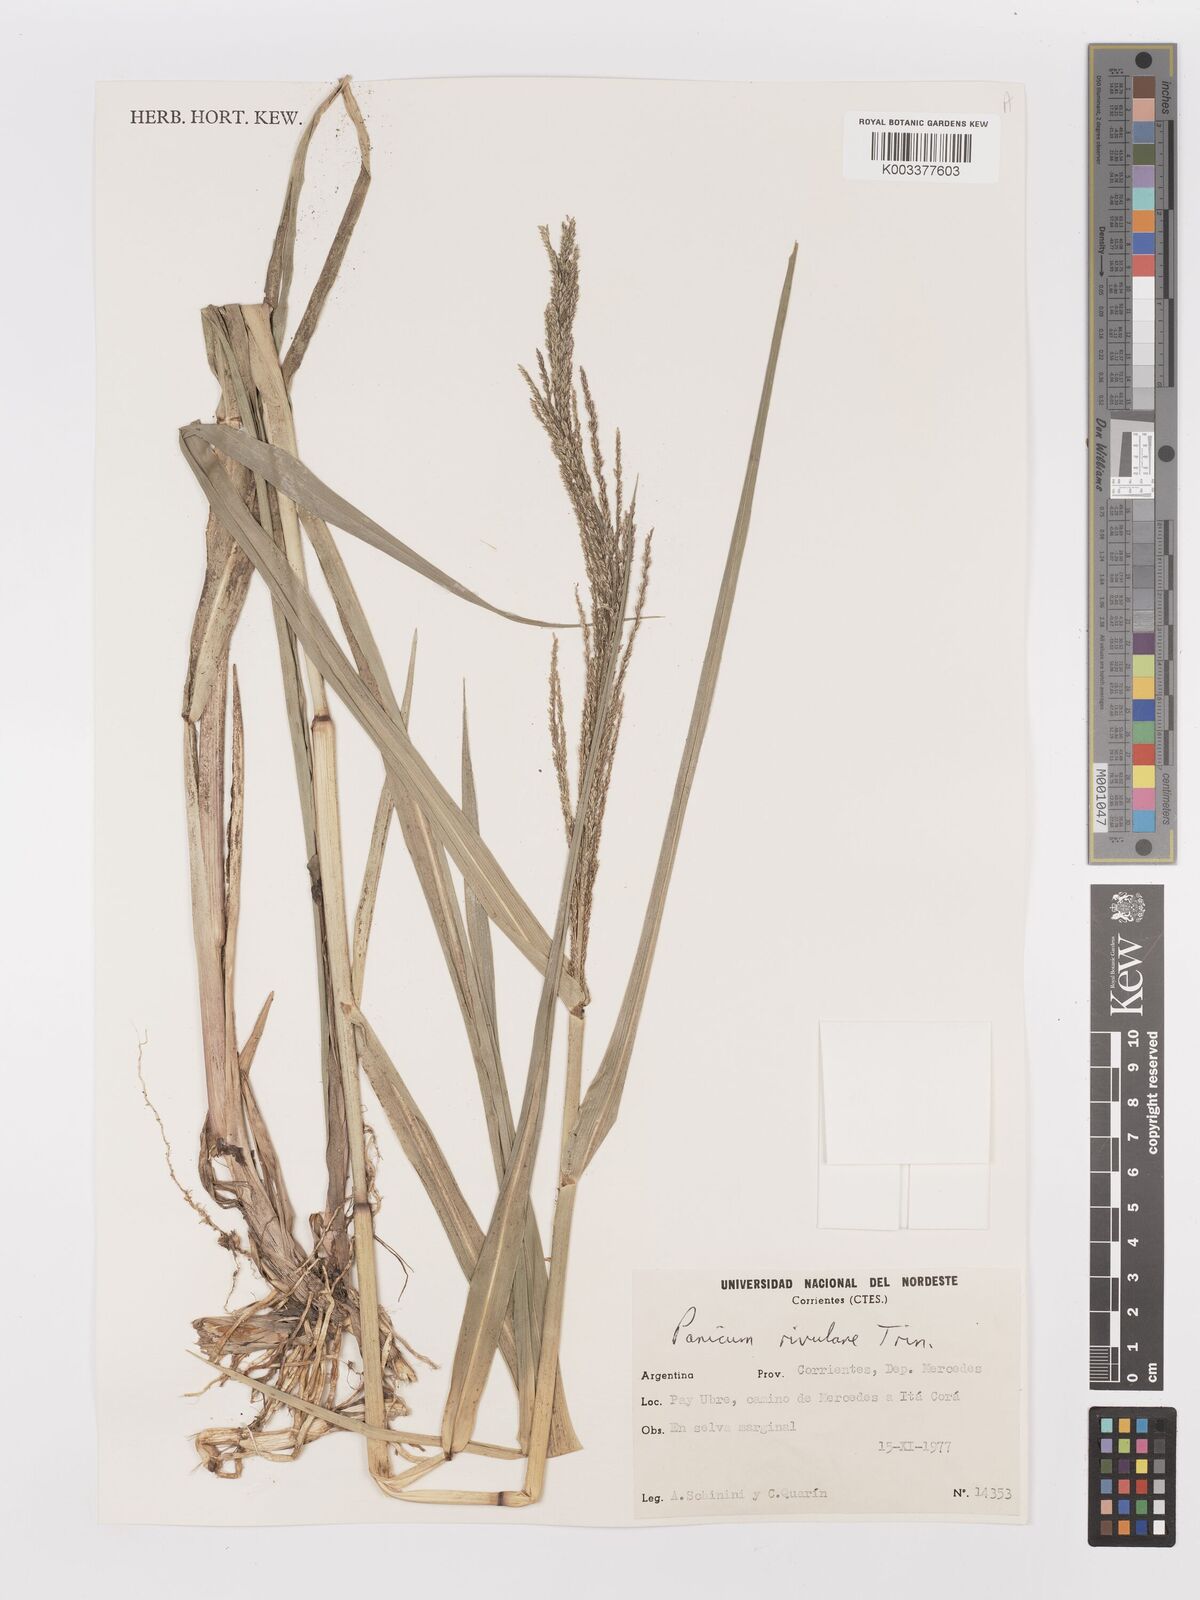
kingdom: Plantae
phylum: Tracheophyta
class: Liliopsida
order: Poales
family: Poaceae
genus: Hymenachne
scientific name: Hymenachne pernambucensis
